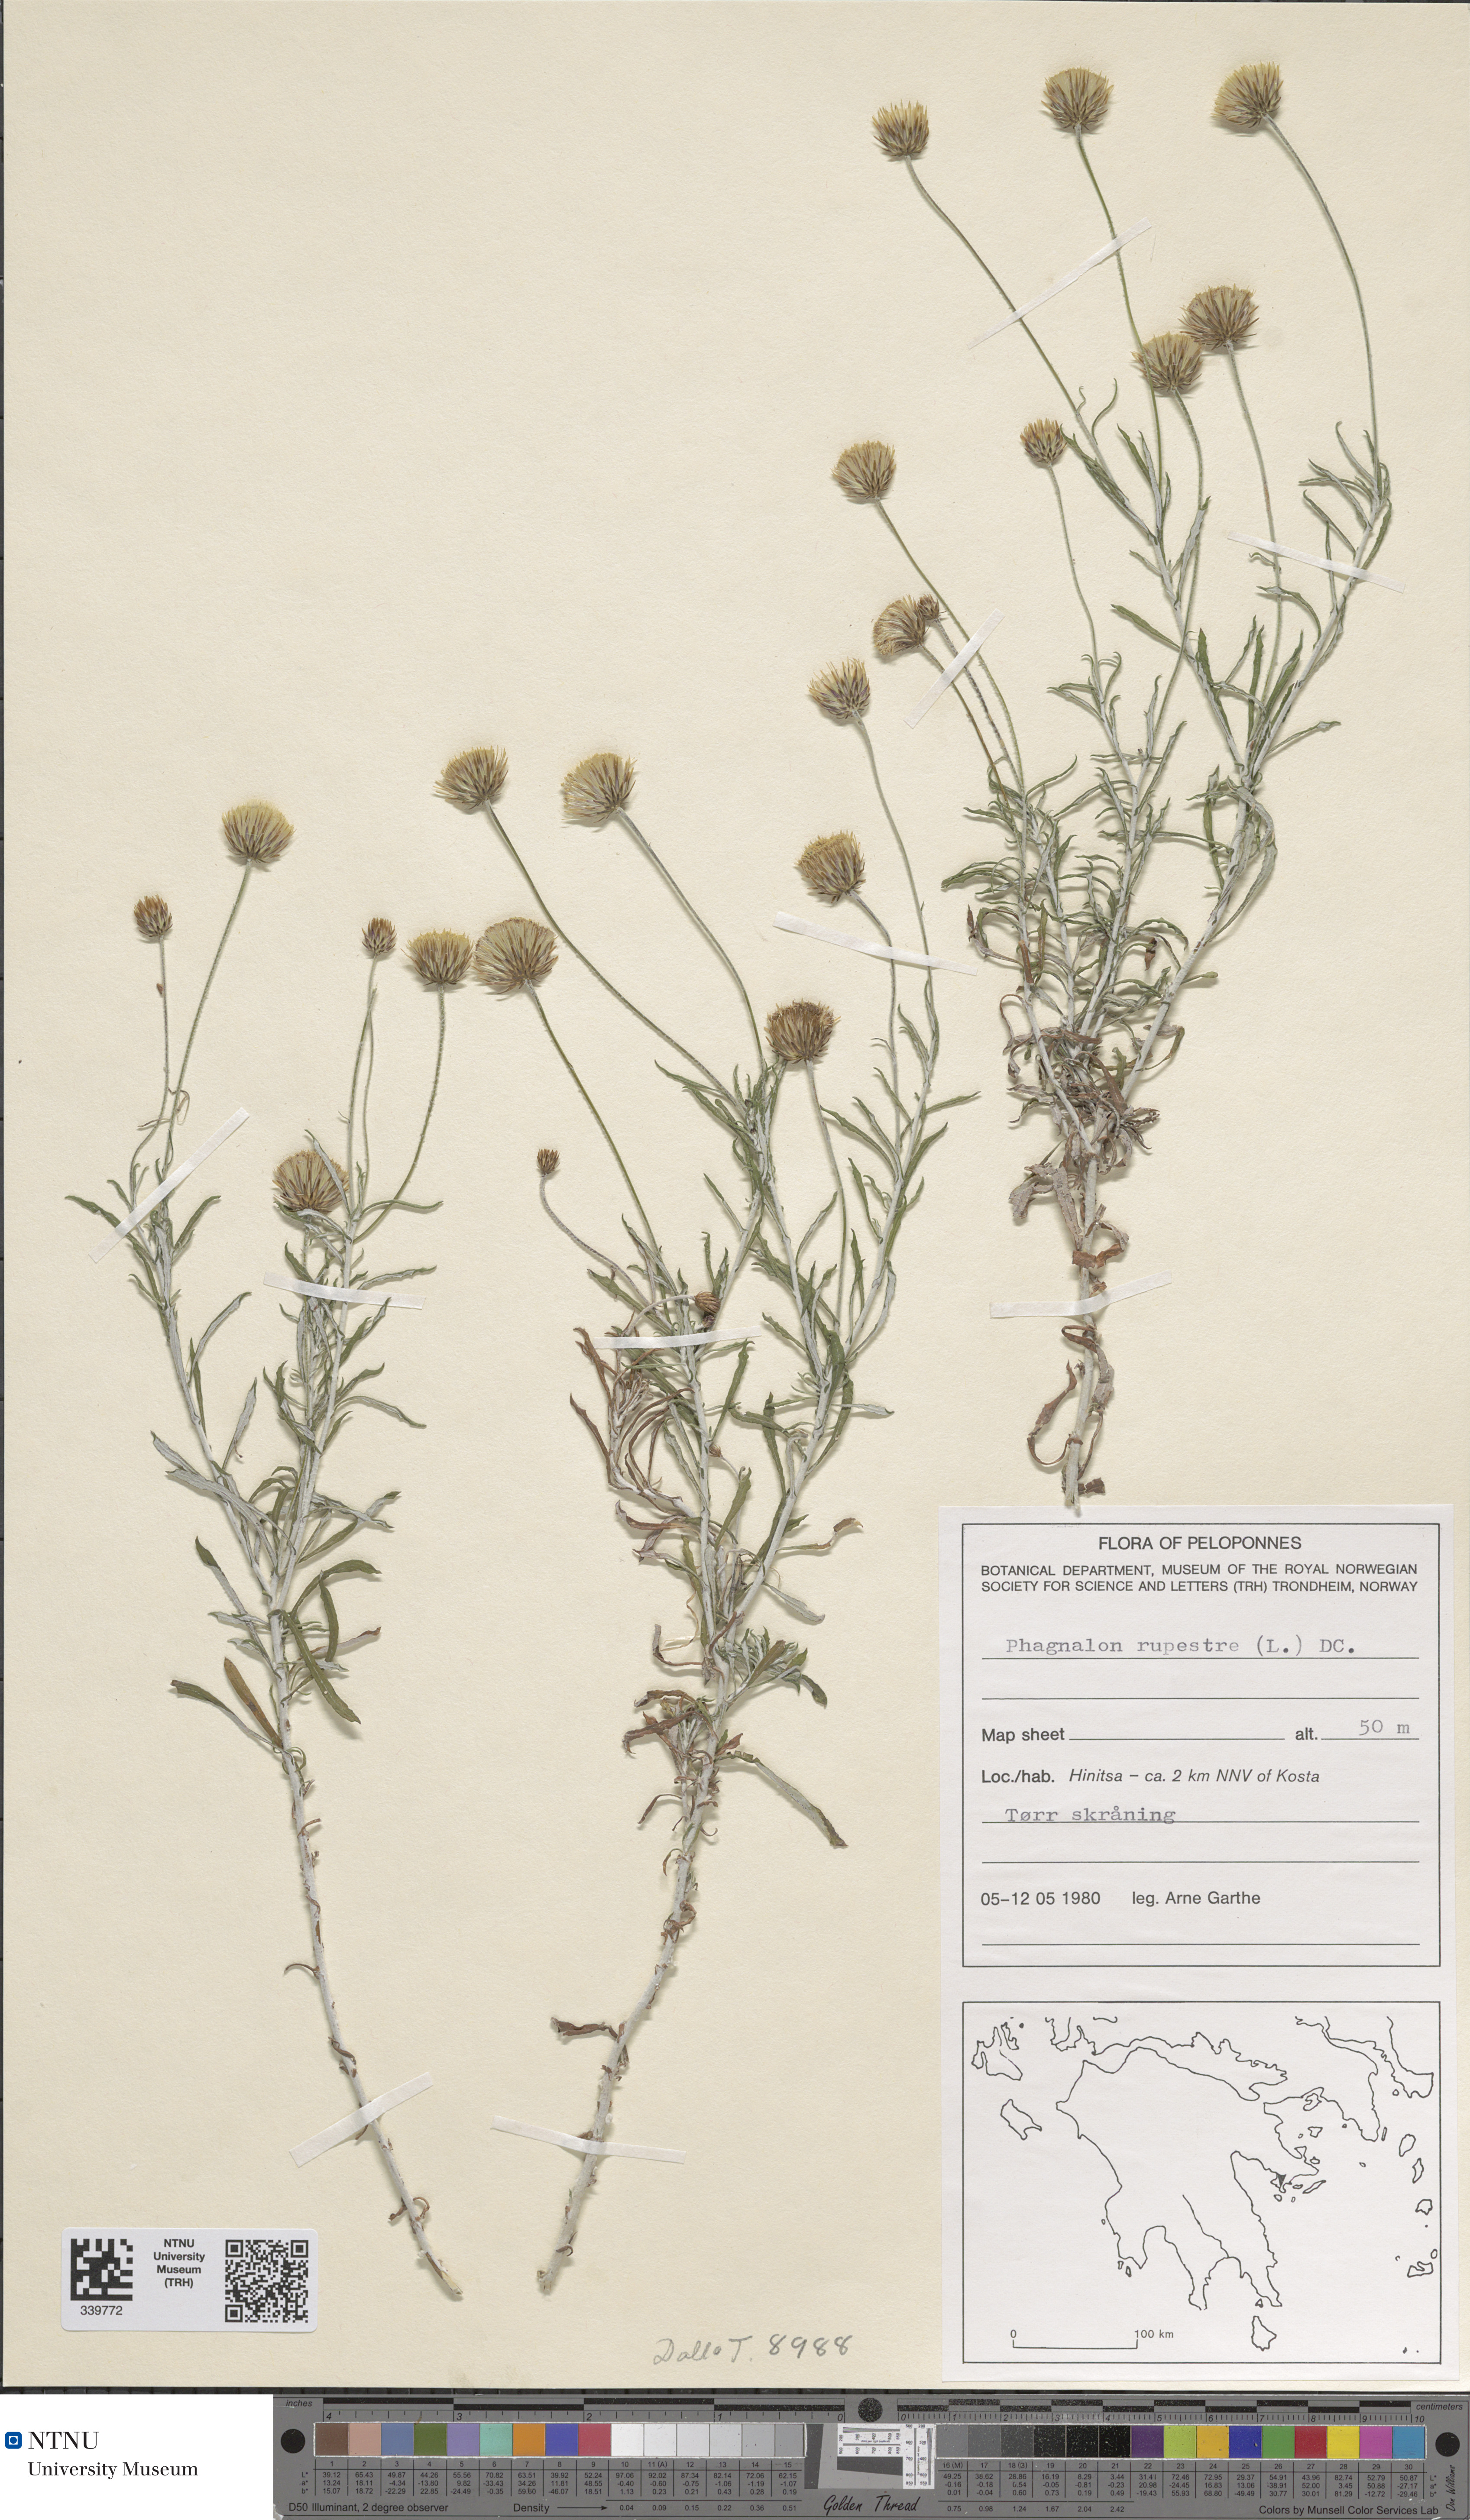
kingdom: Plantae
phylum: Tracheophyta
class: Magnoliopsida
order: Asterales
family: Asteraceae
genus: Phagnalon
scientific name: Phagnalon rupestre
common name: Rock phagnalon
